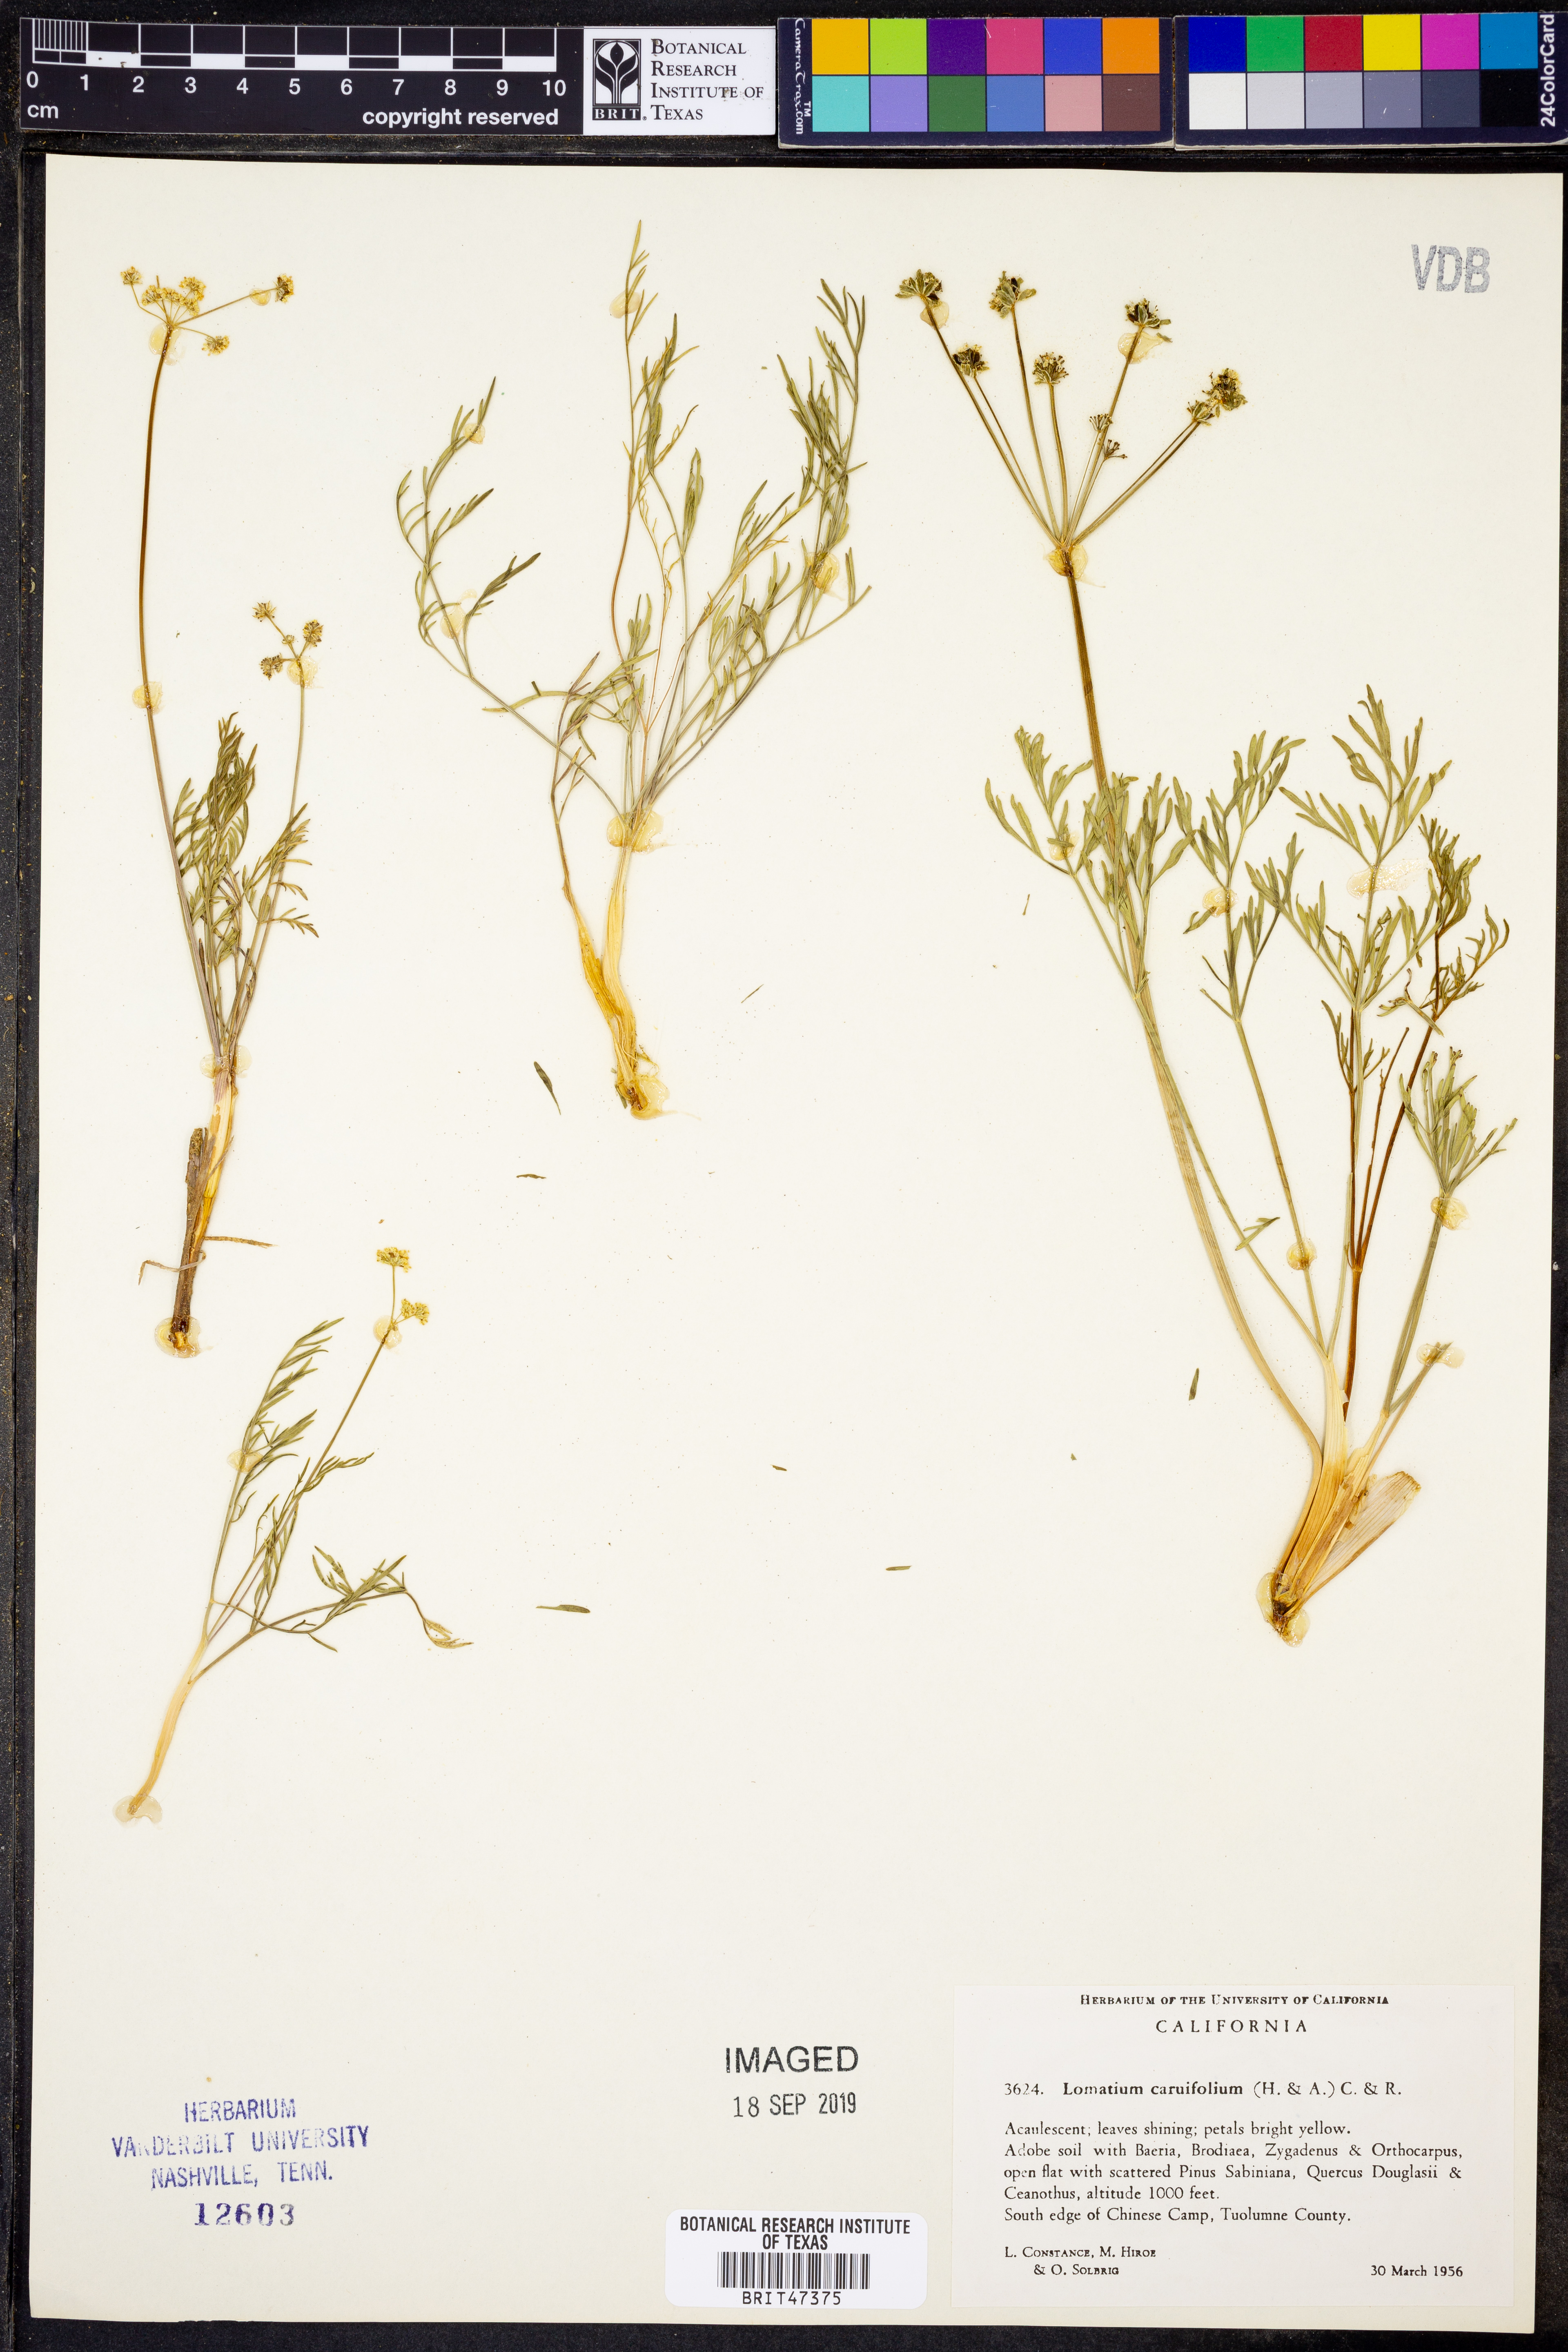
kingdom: Plantae
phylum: Tracheophyta
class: Magnoliopsida
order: Apiales
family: Apiaceae
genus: Lomatium
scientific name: Lomatium caruifolium
